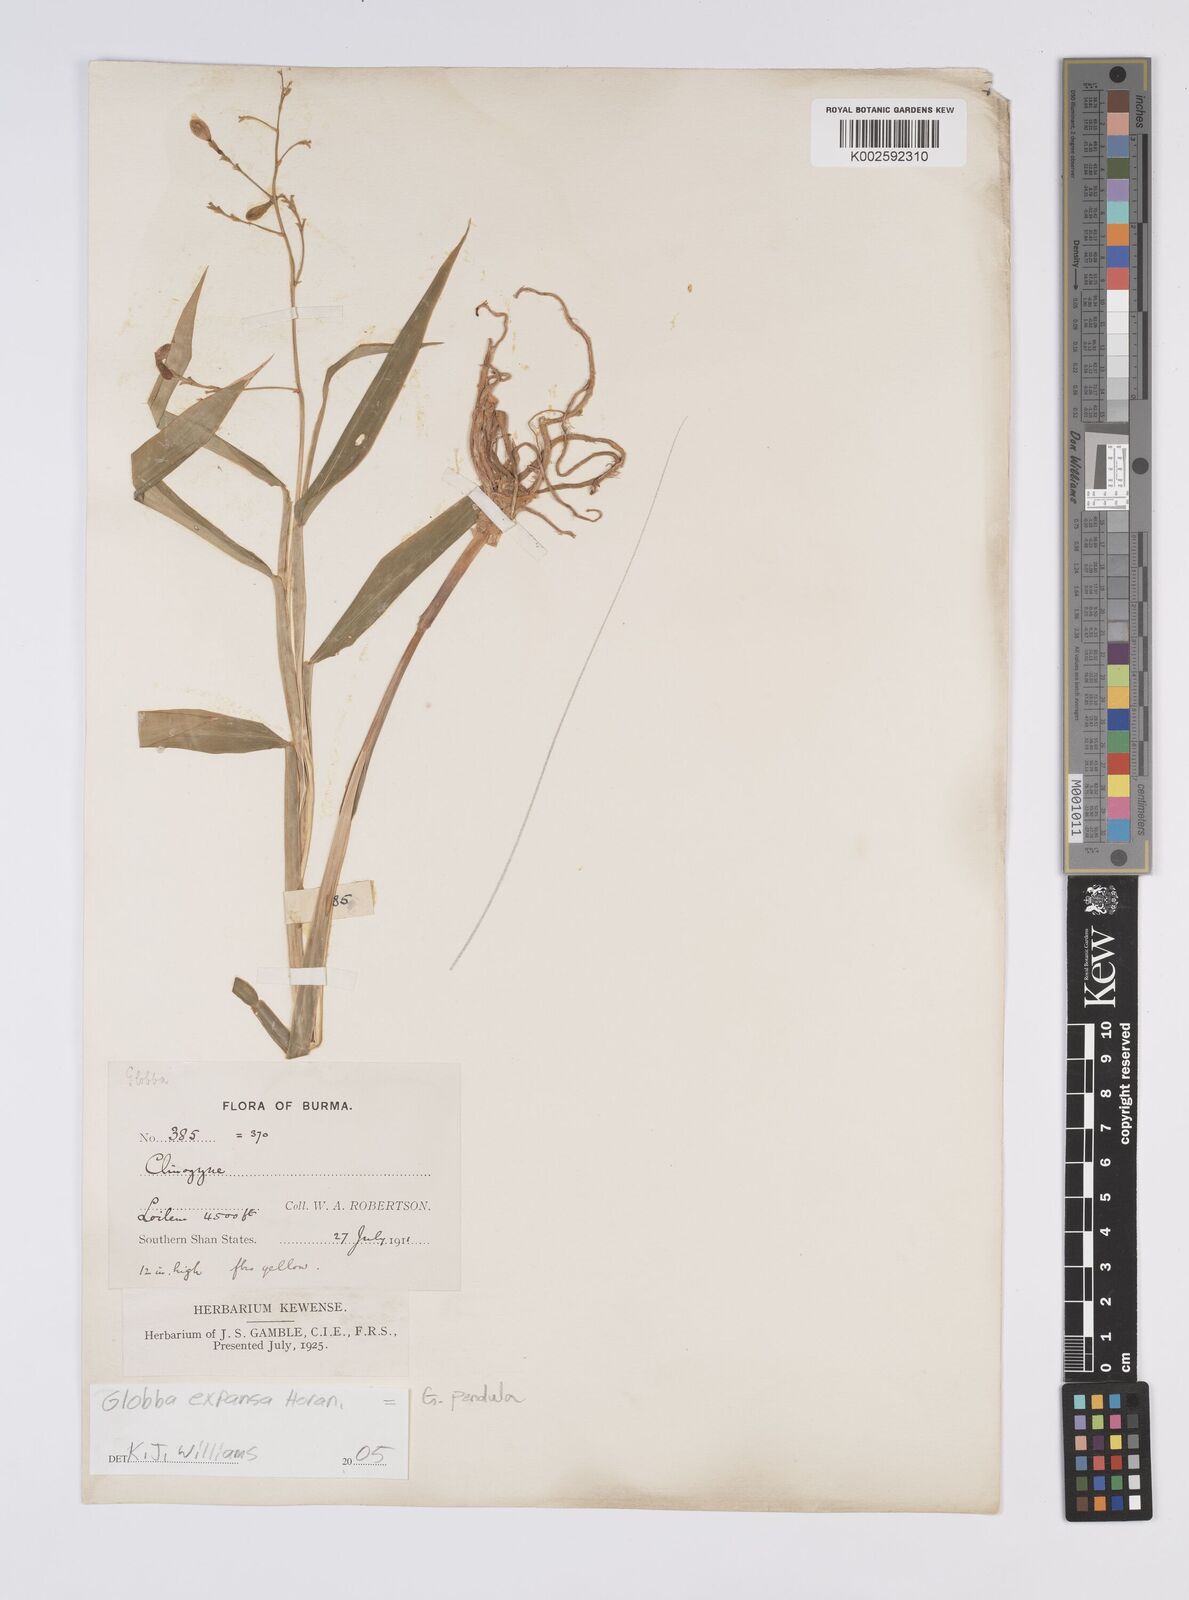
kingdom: Plantae
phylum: Tracheophyta
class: Liliopsida
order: Zingiberales
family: Zingiberaceae
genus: Globba
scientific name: Globba pendula
